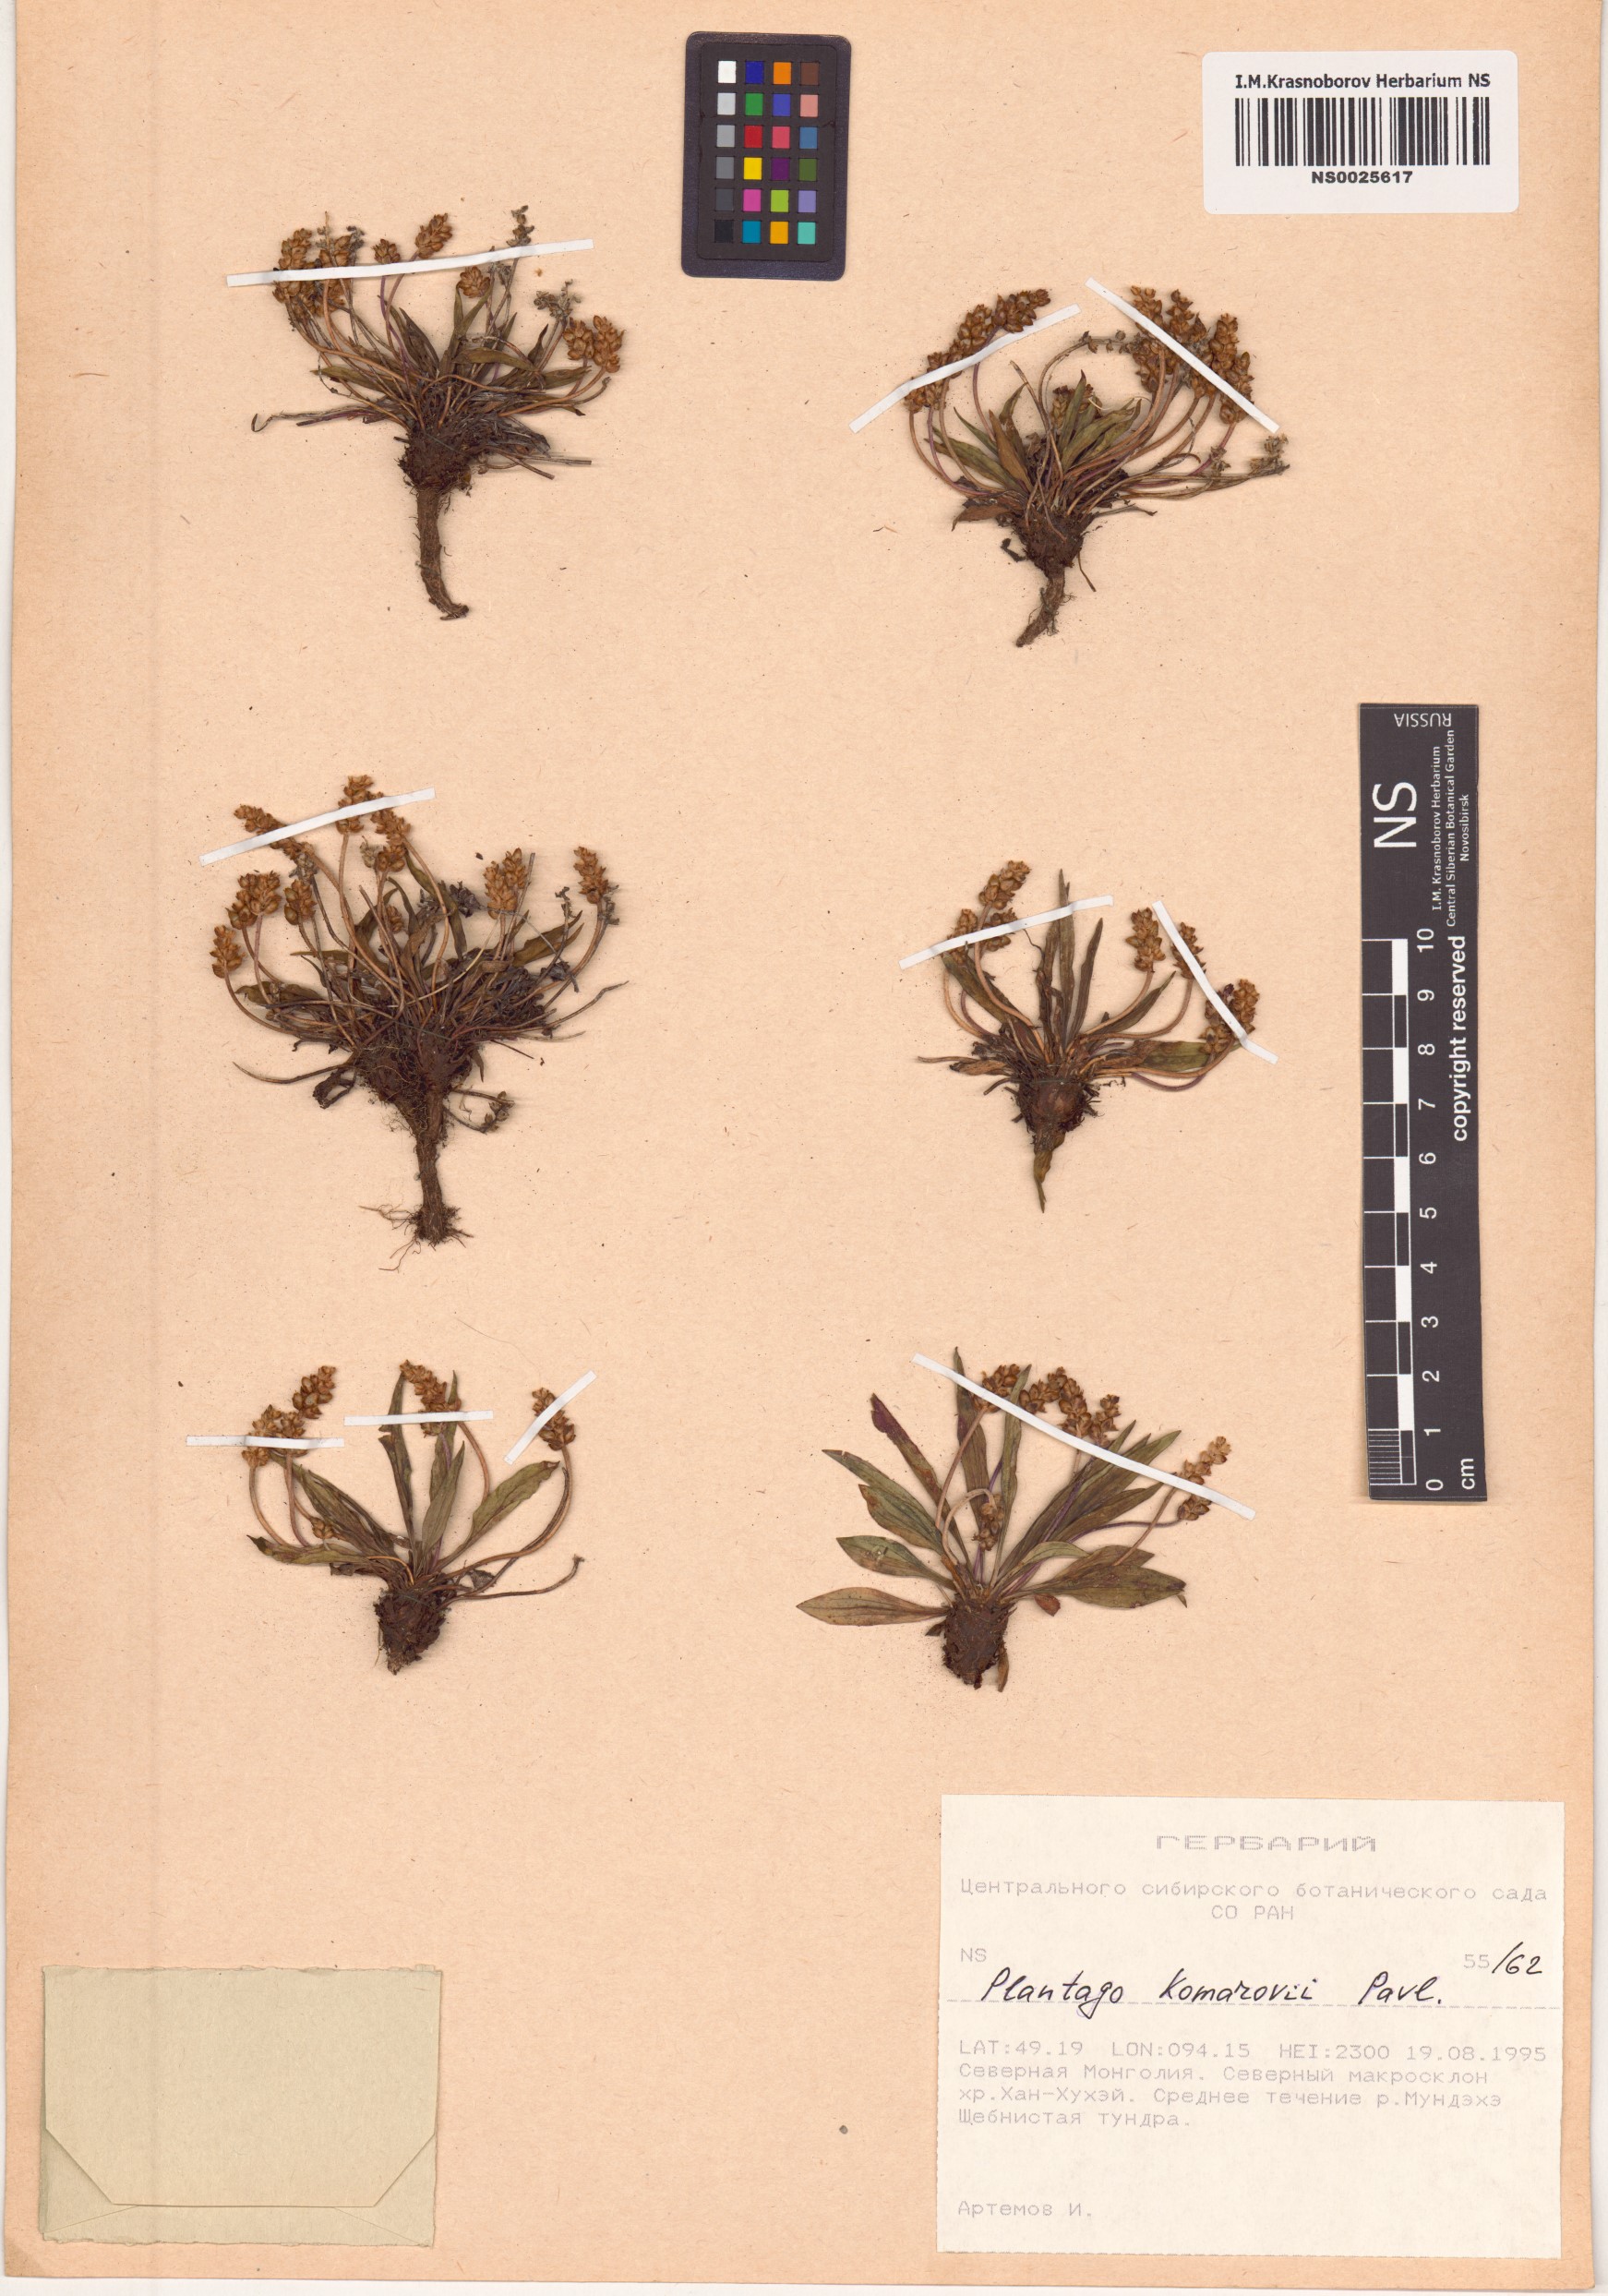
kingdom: Plantae
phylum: Tracheophyta
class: Magnoliopsida
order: Lamiales
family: Plantaginaceae
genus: Plantago
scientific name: Plantago komarovii
